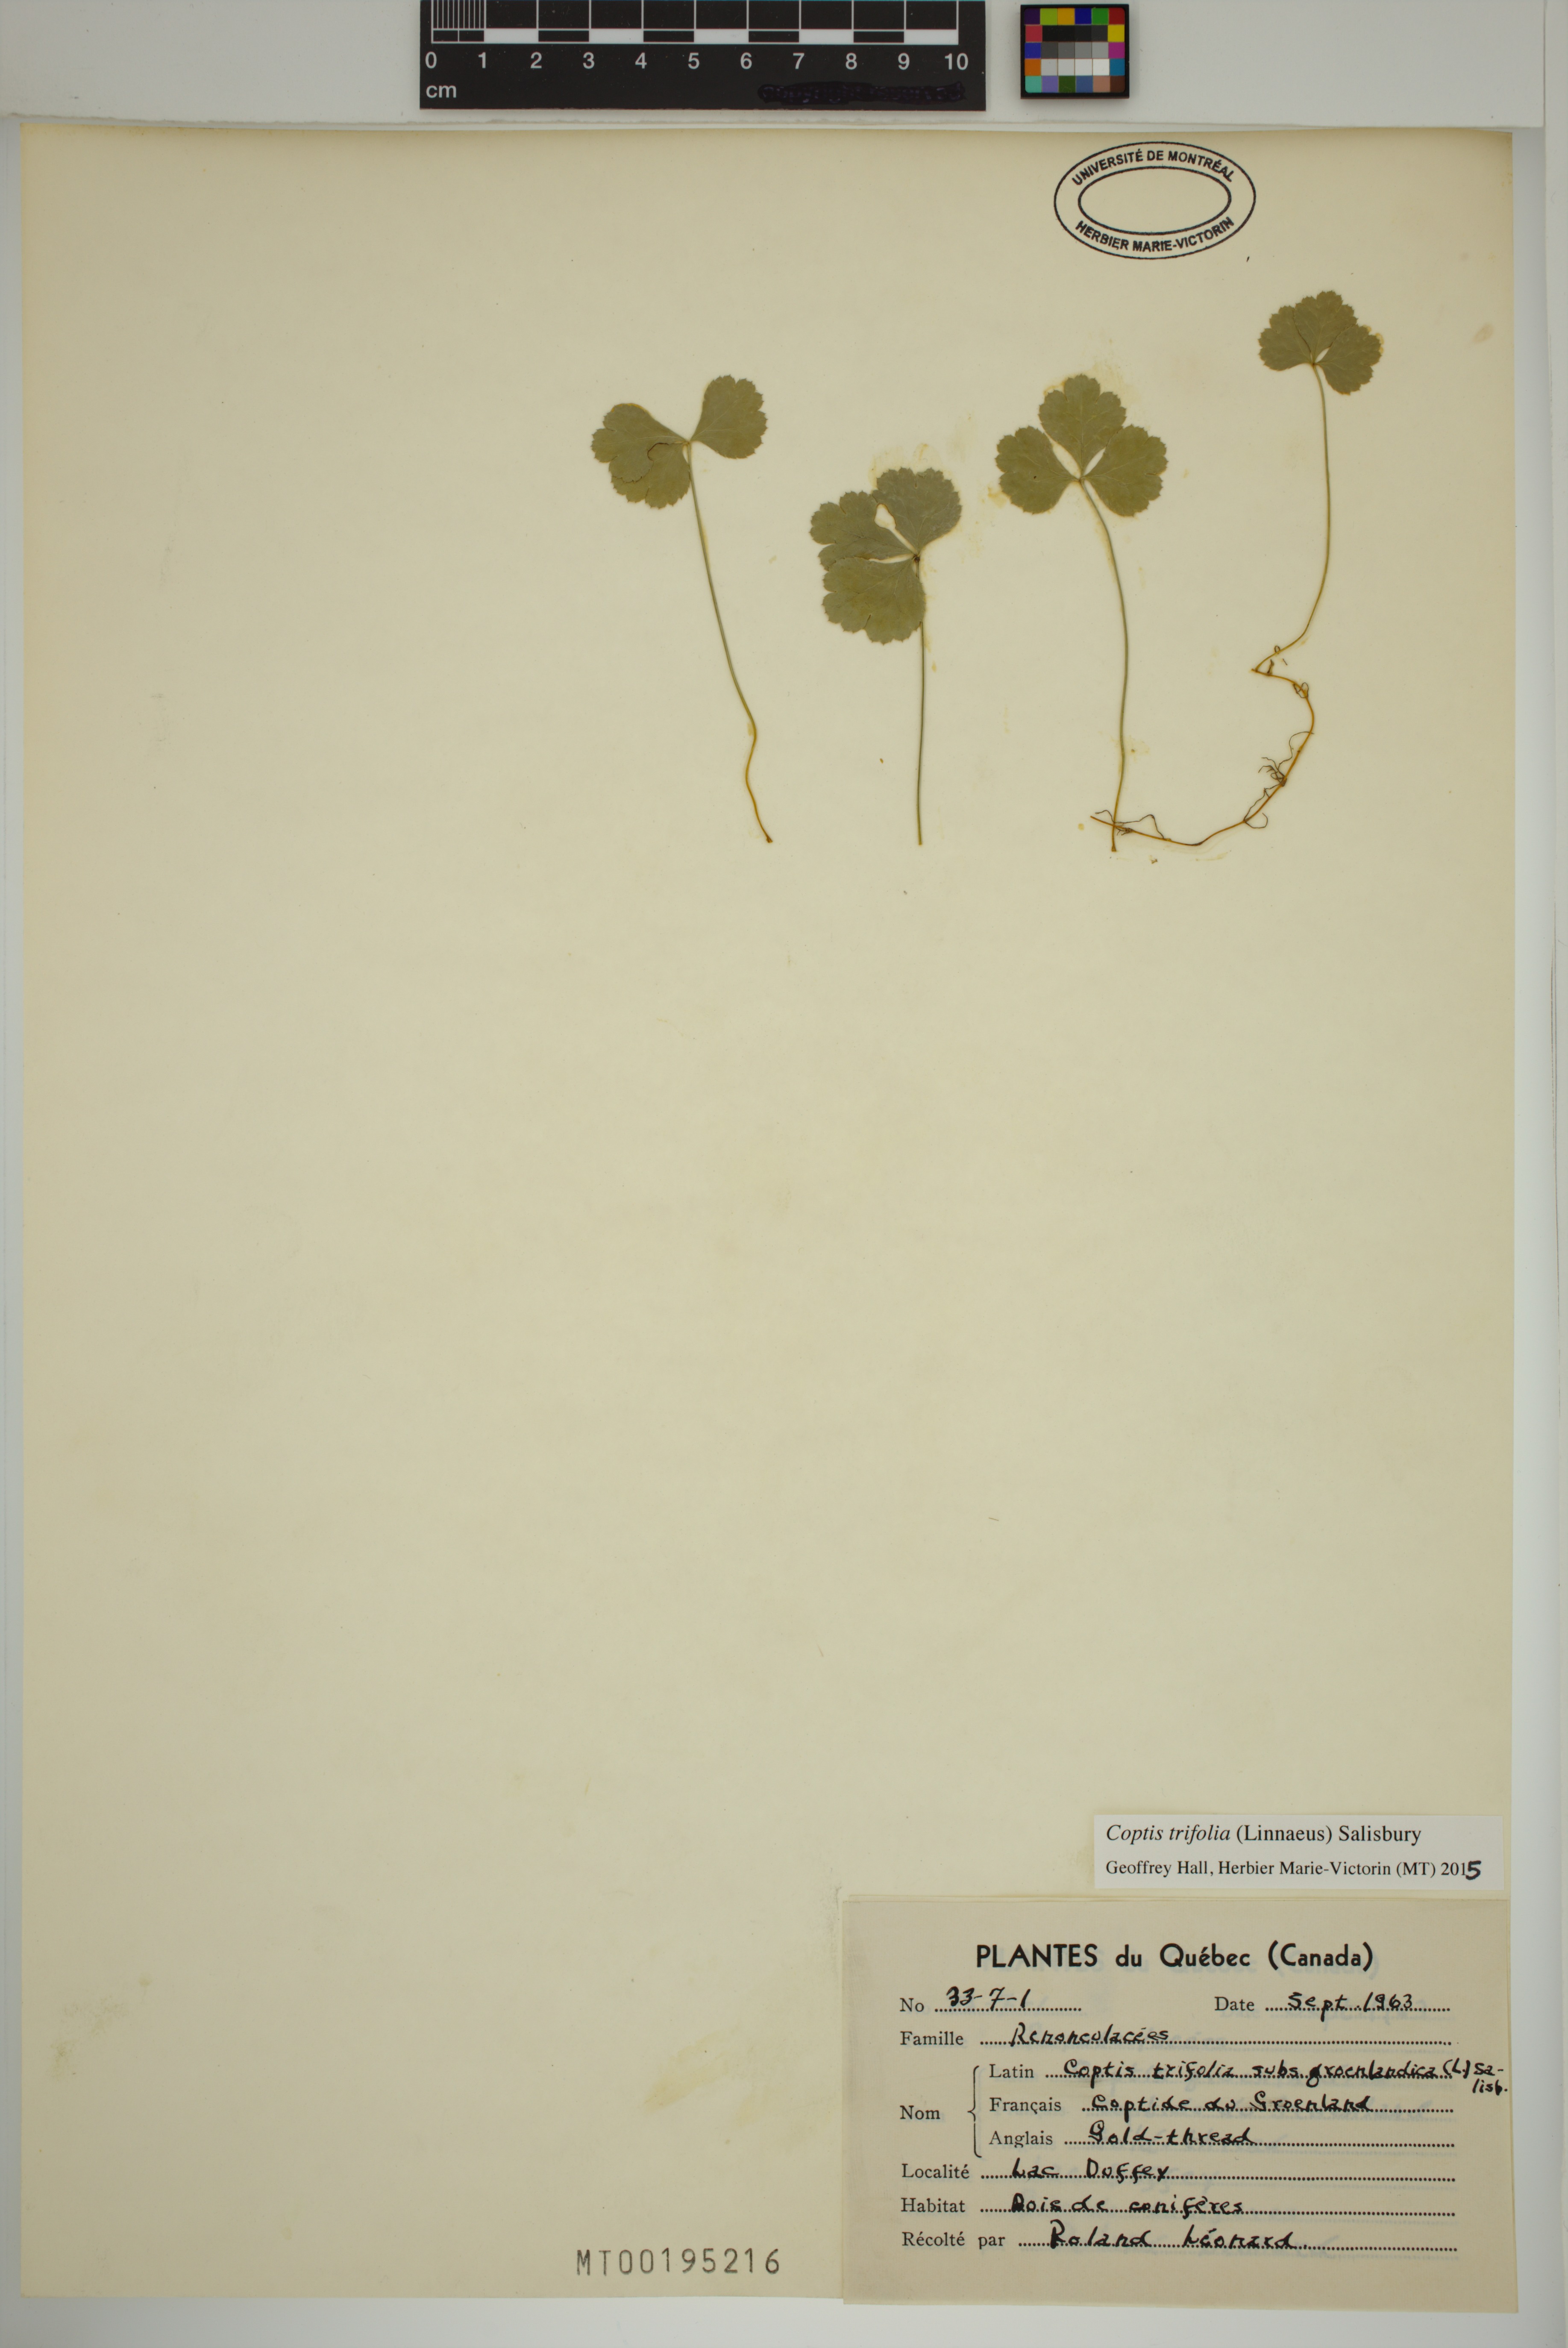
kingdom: Plantae
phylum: Tracheophyta
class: Magnoliopsida
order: Ranunculales
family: Ranunculaceae
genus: Coptis
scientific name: Coptis trifolia
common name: Canker-root
